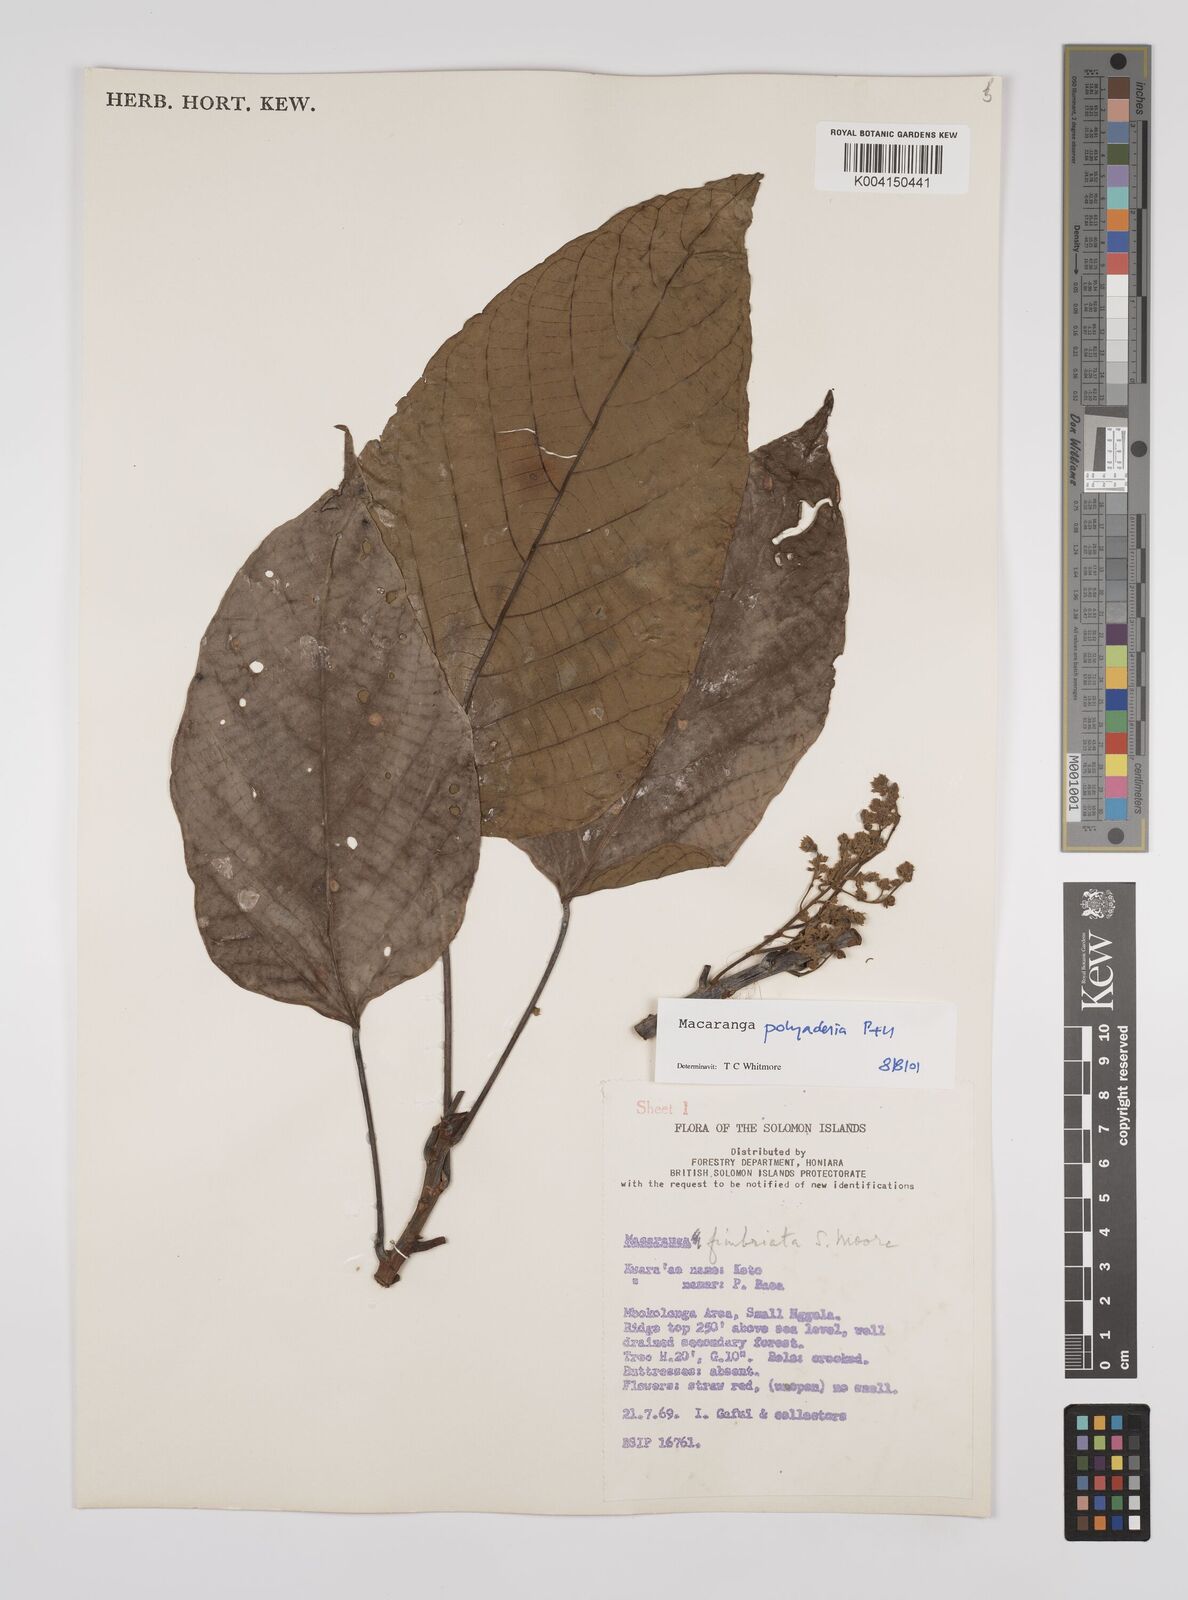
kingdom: Plantae
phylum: Tracheophyta
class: Magnoliopsida
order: Malpighiales
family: Euphorbiaceae
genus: Macaranga
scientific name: Macaranga polyadenia
